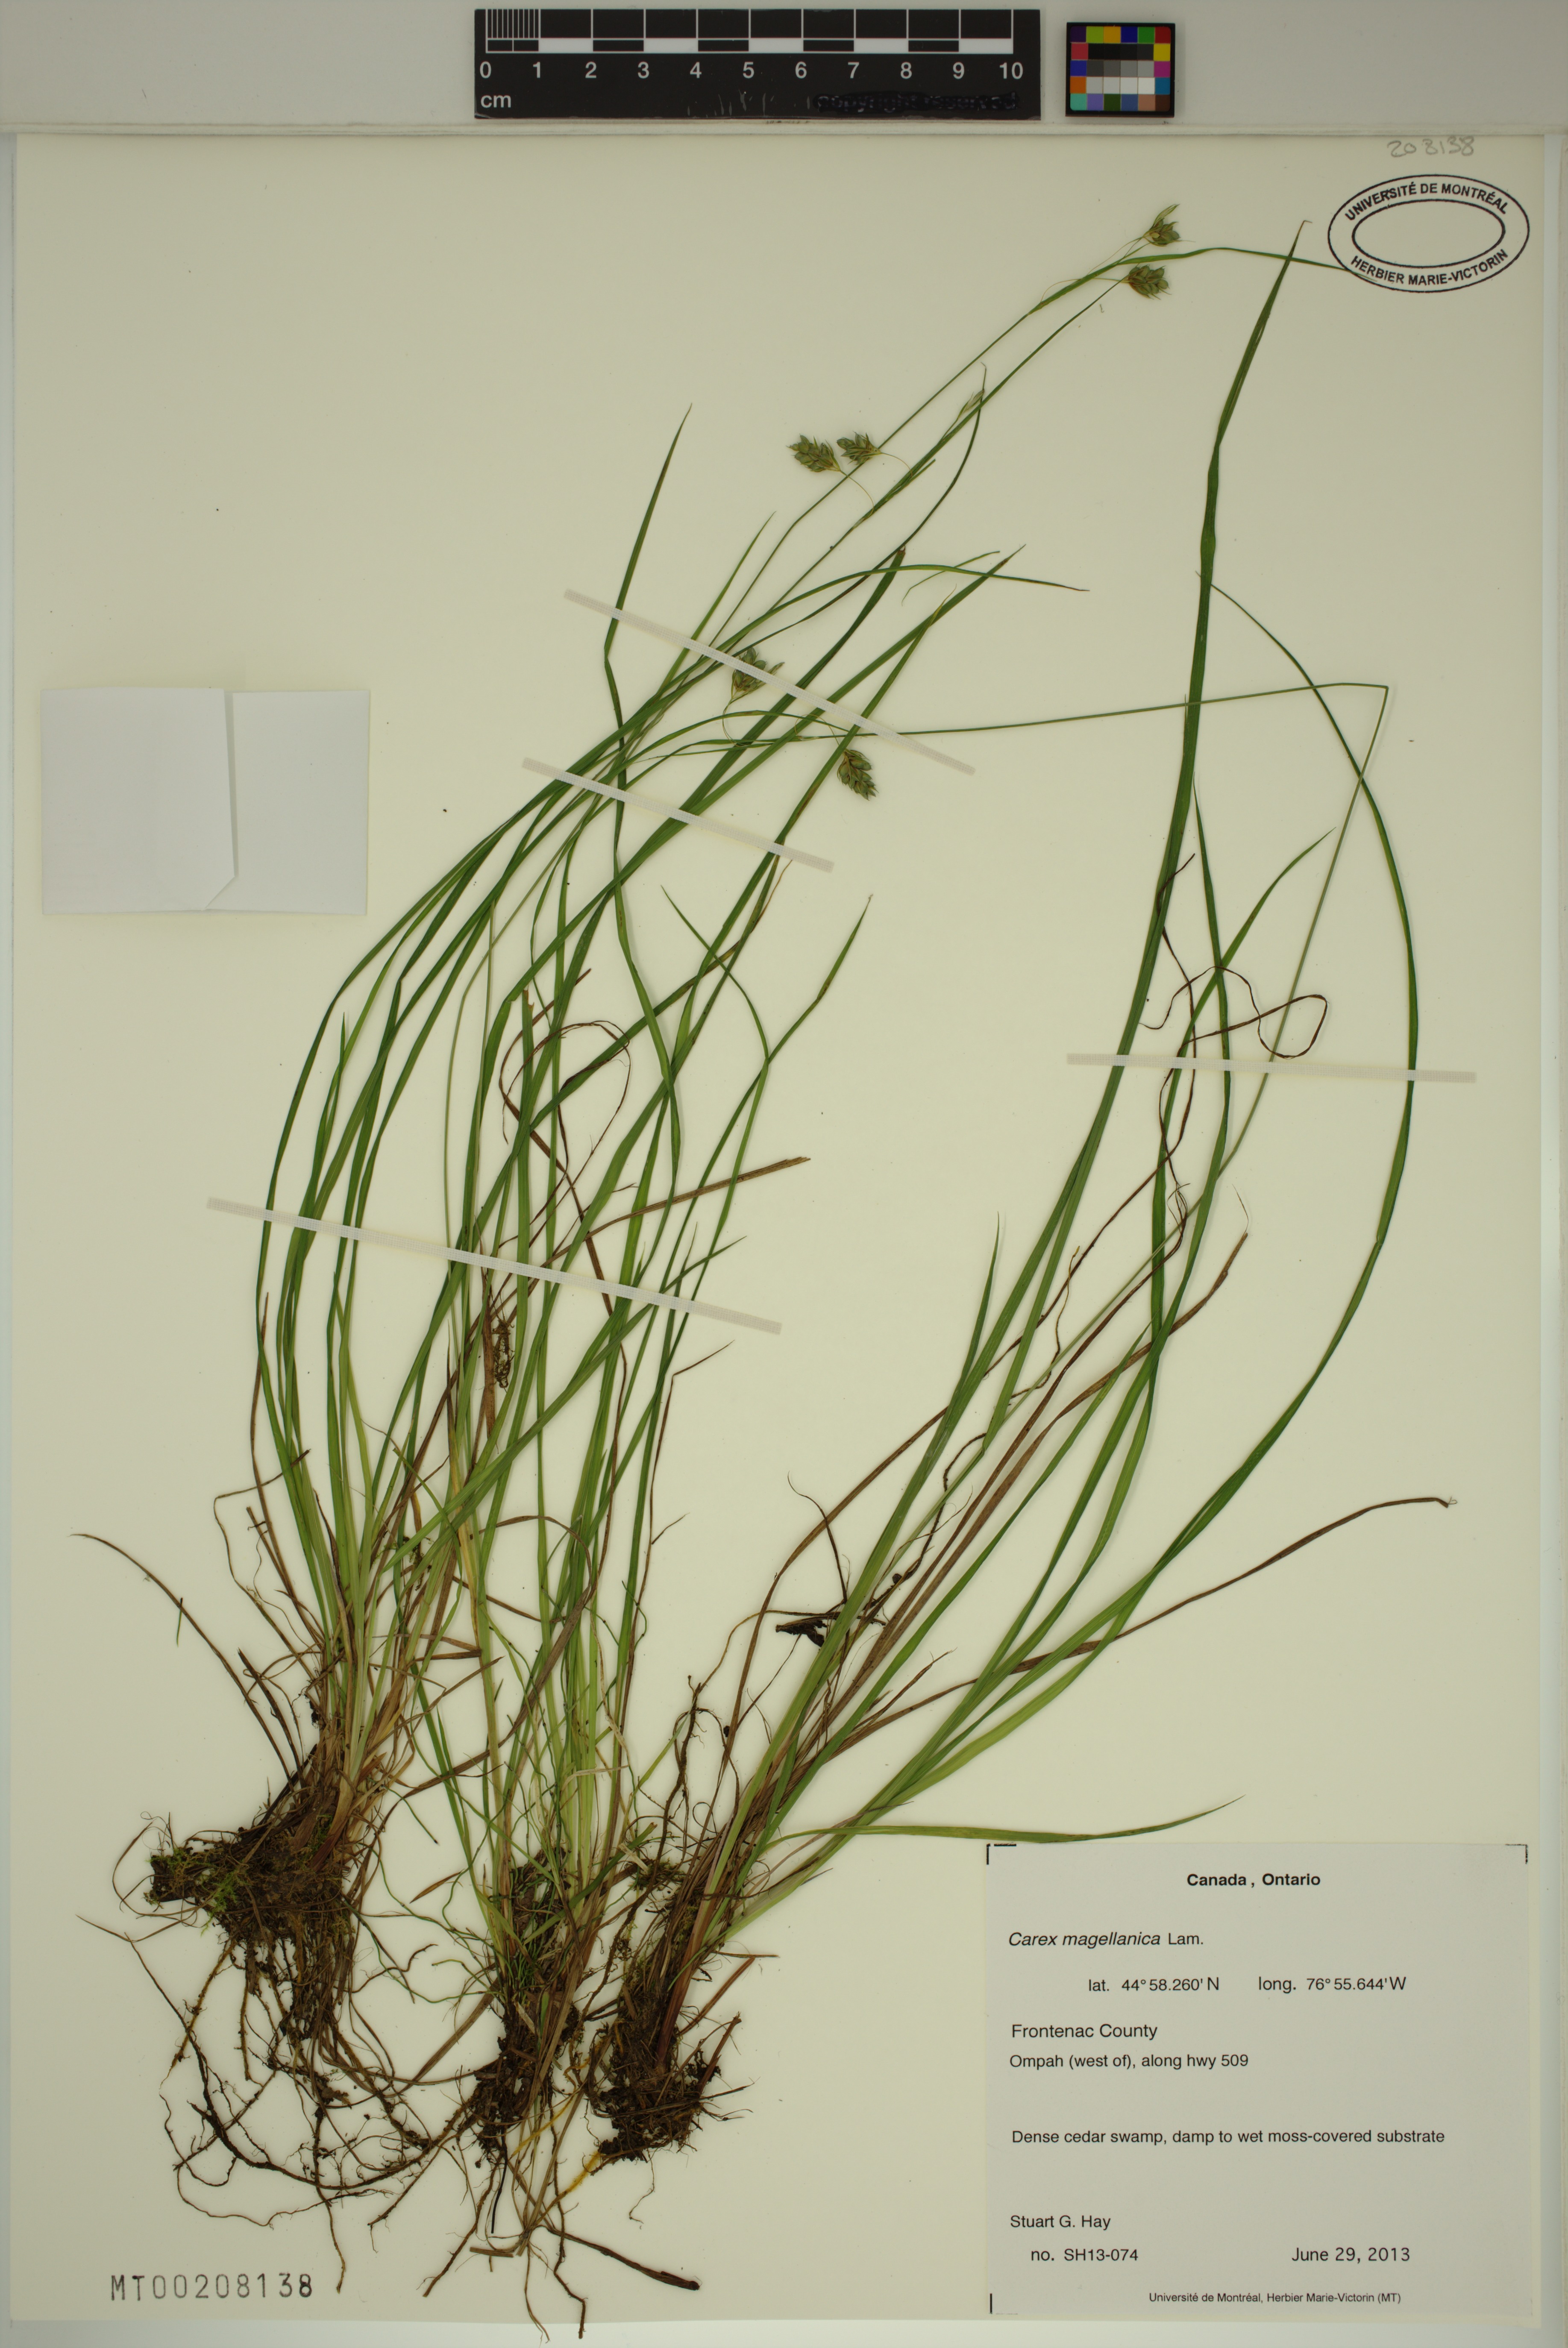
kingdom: Plantae
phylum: Tracheophyta
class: Liliopsida
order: Poales
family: Cyperaceae
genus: Carex
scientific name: Carex magellanica
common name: Bog sedge
